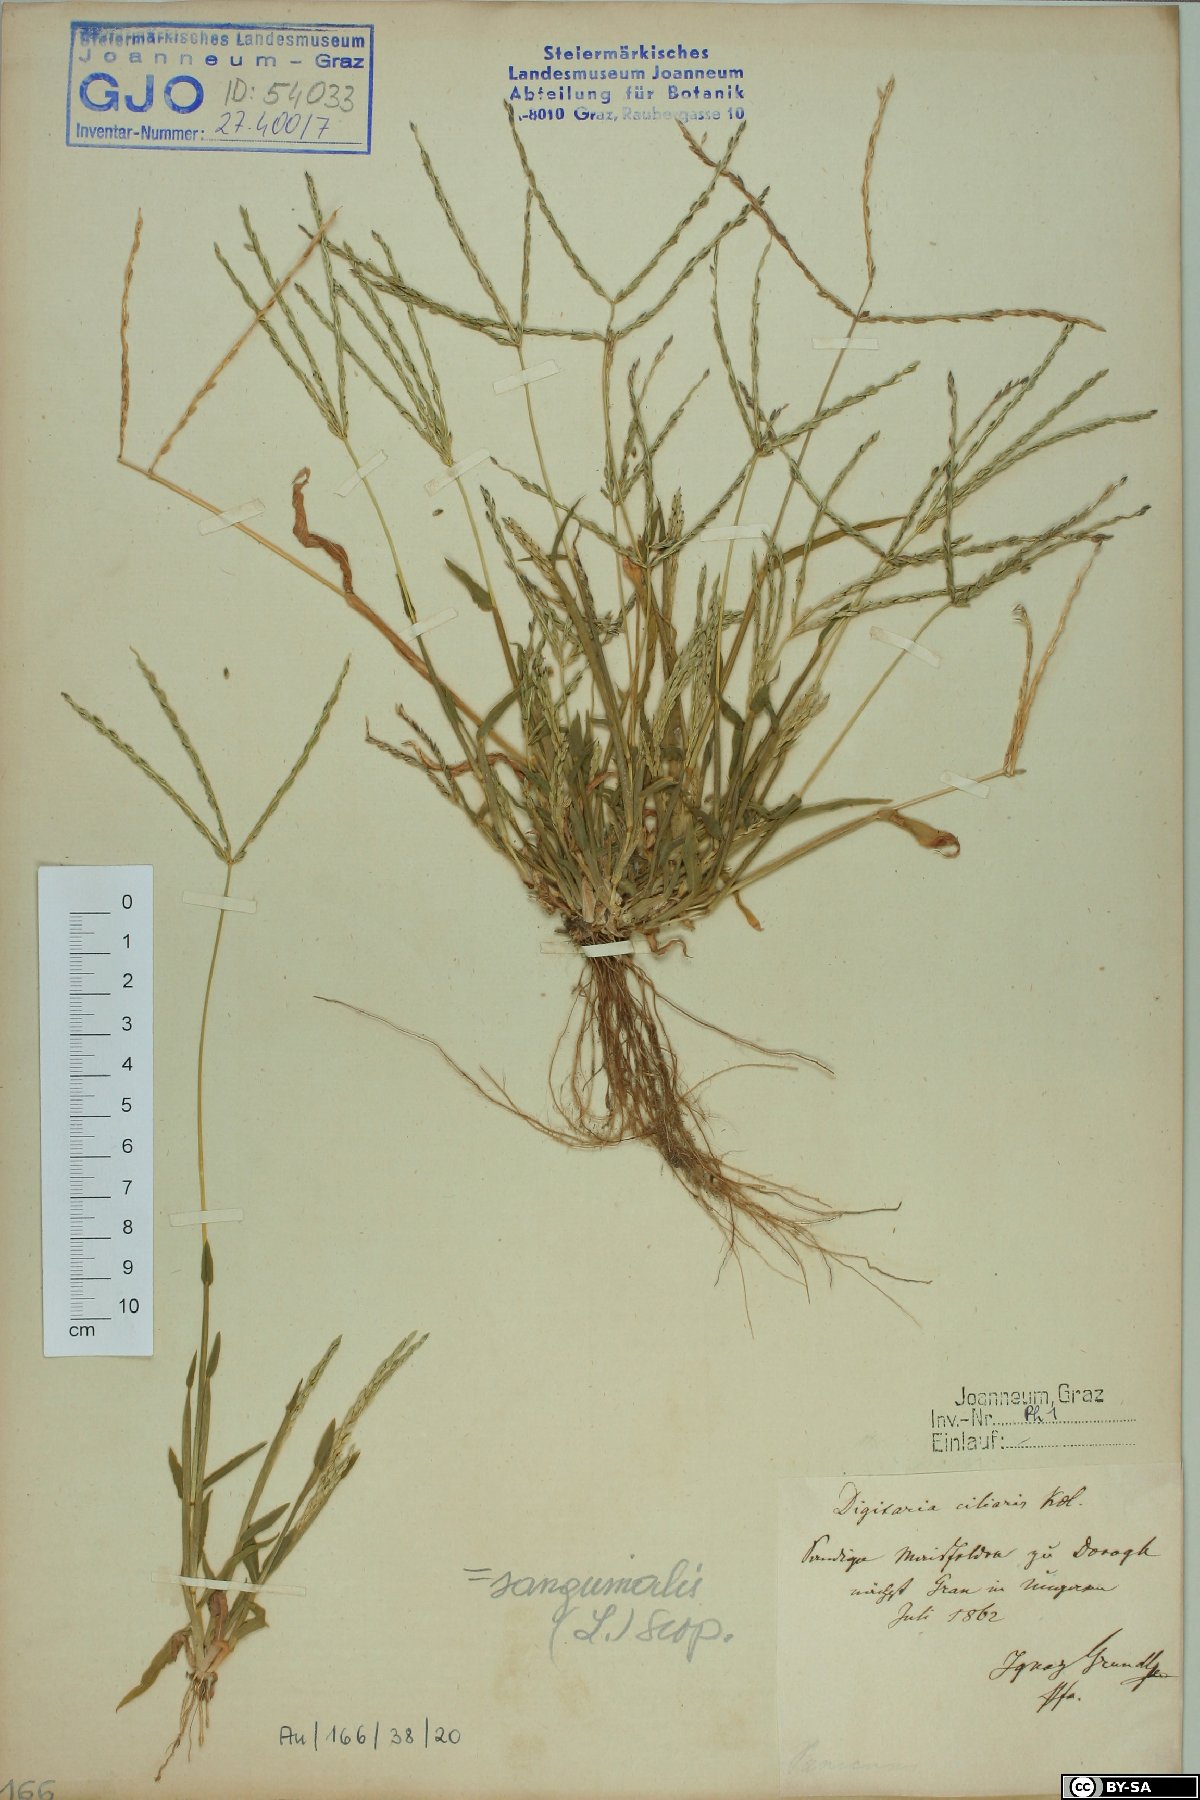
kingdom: Plantae
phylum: Tracheophyta
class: Liliopsida
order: Poales
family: Poaceae
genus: Digitaria
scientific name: Digitaria ciliaris
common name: Tropical finger-grass
